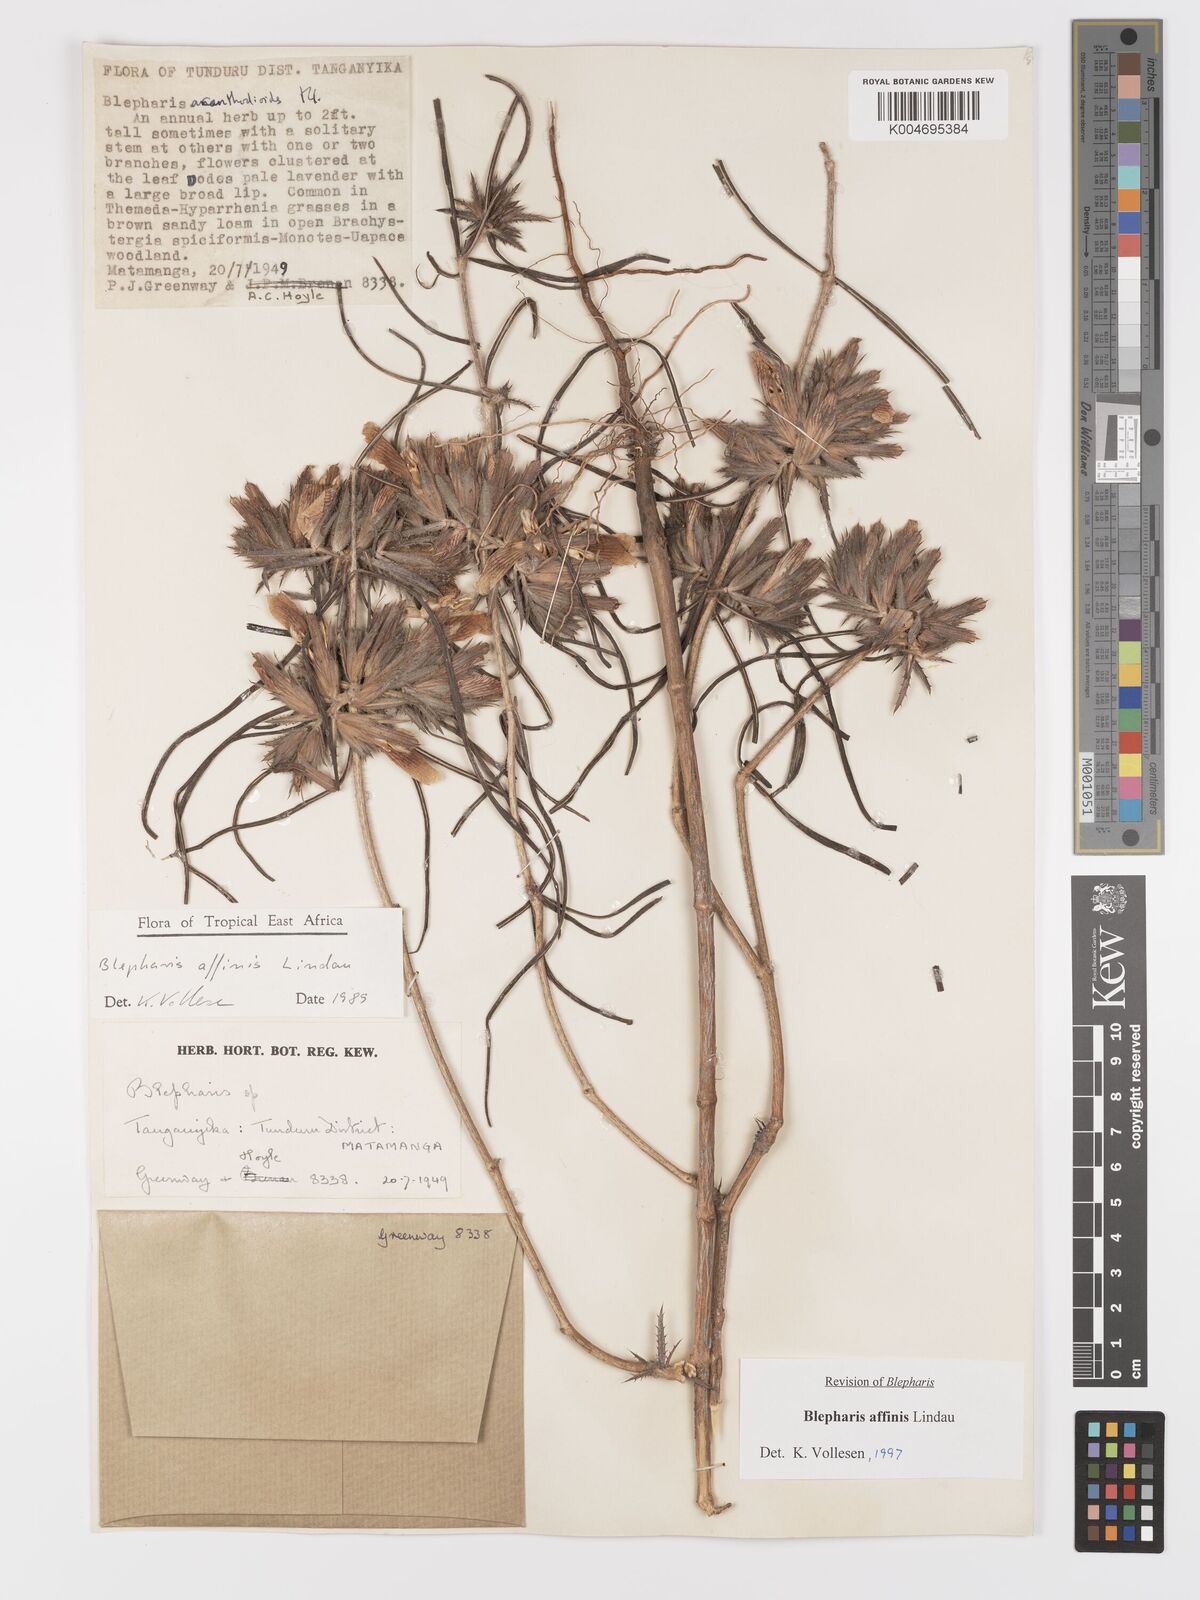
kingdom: Plantae
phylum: Tracheophyta
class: Magnoliopsida
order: Lamiales
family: Acanthaceae
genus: Blepharis
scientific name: Blepharis affinis
